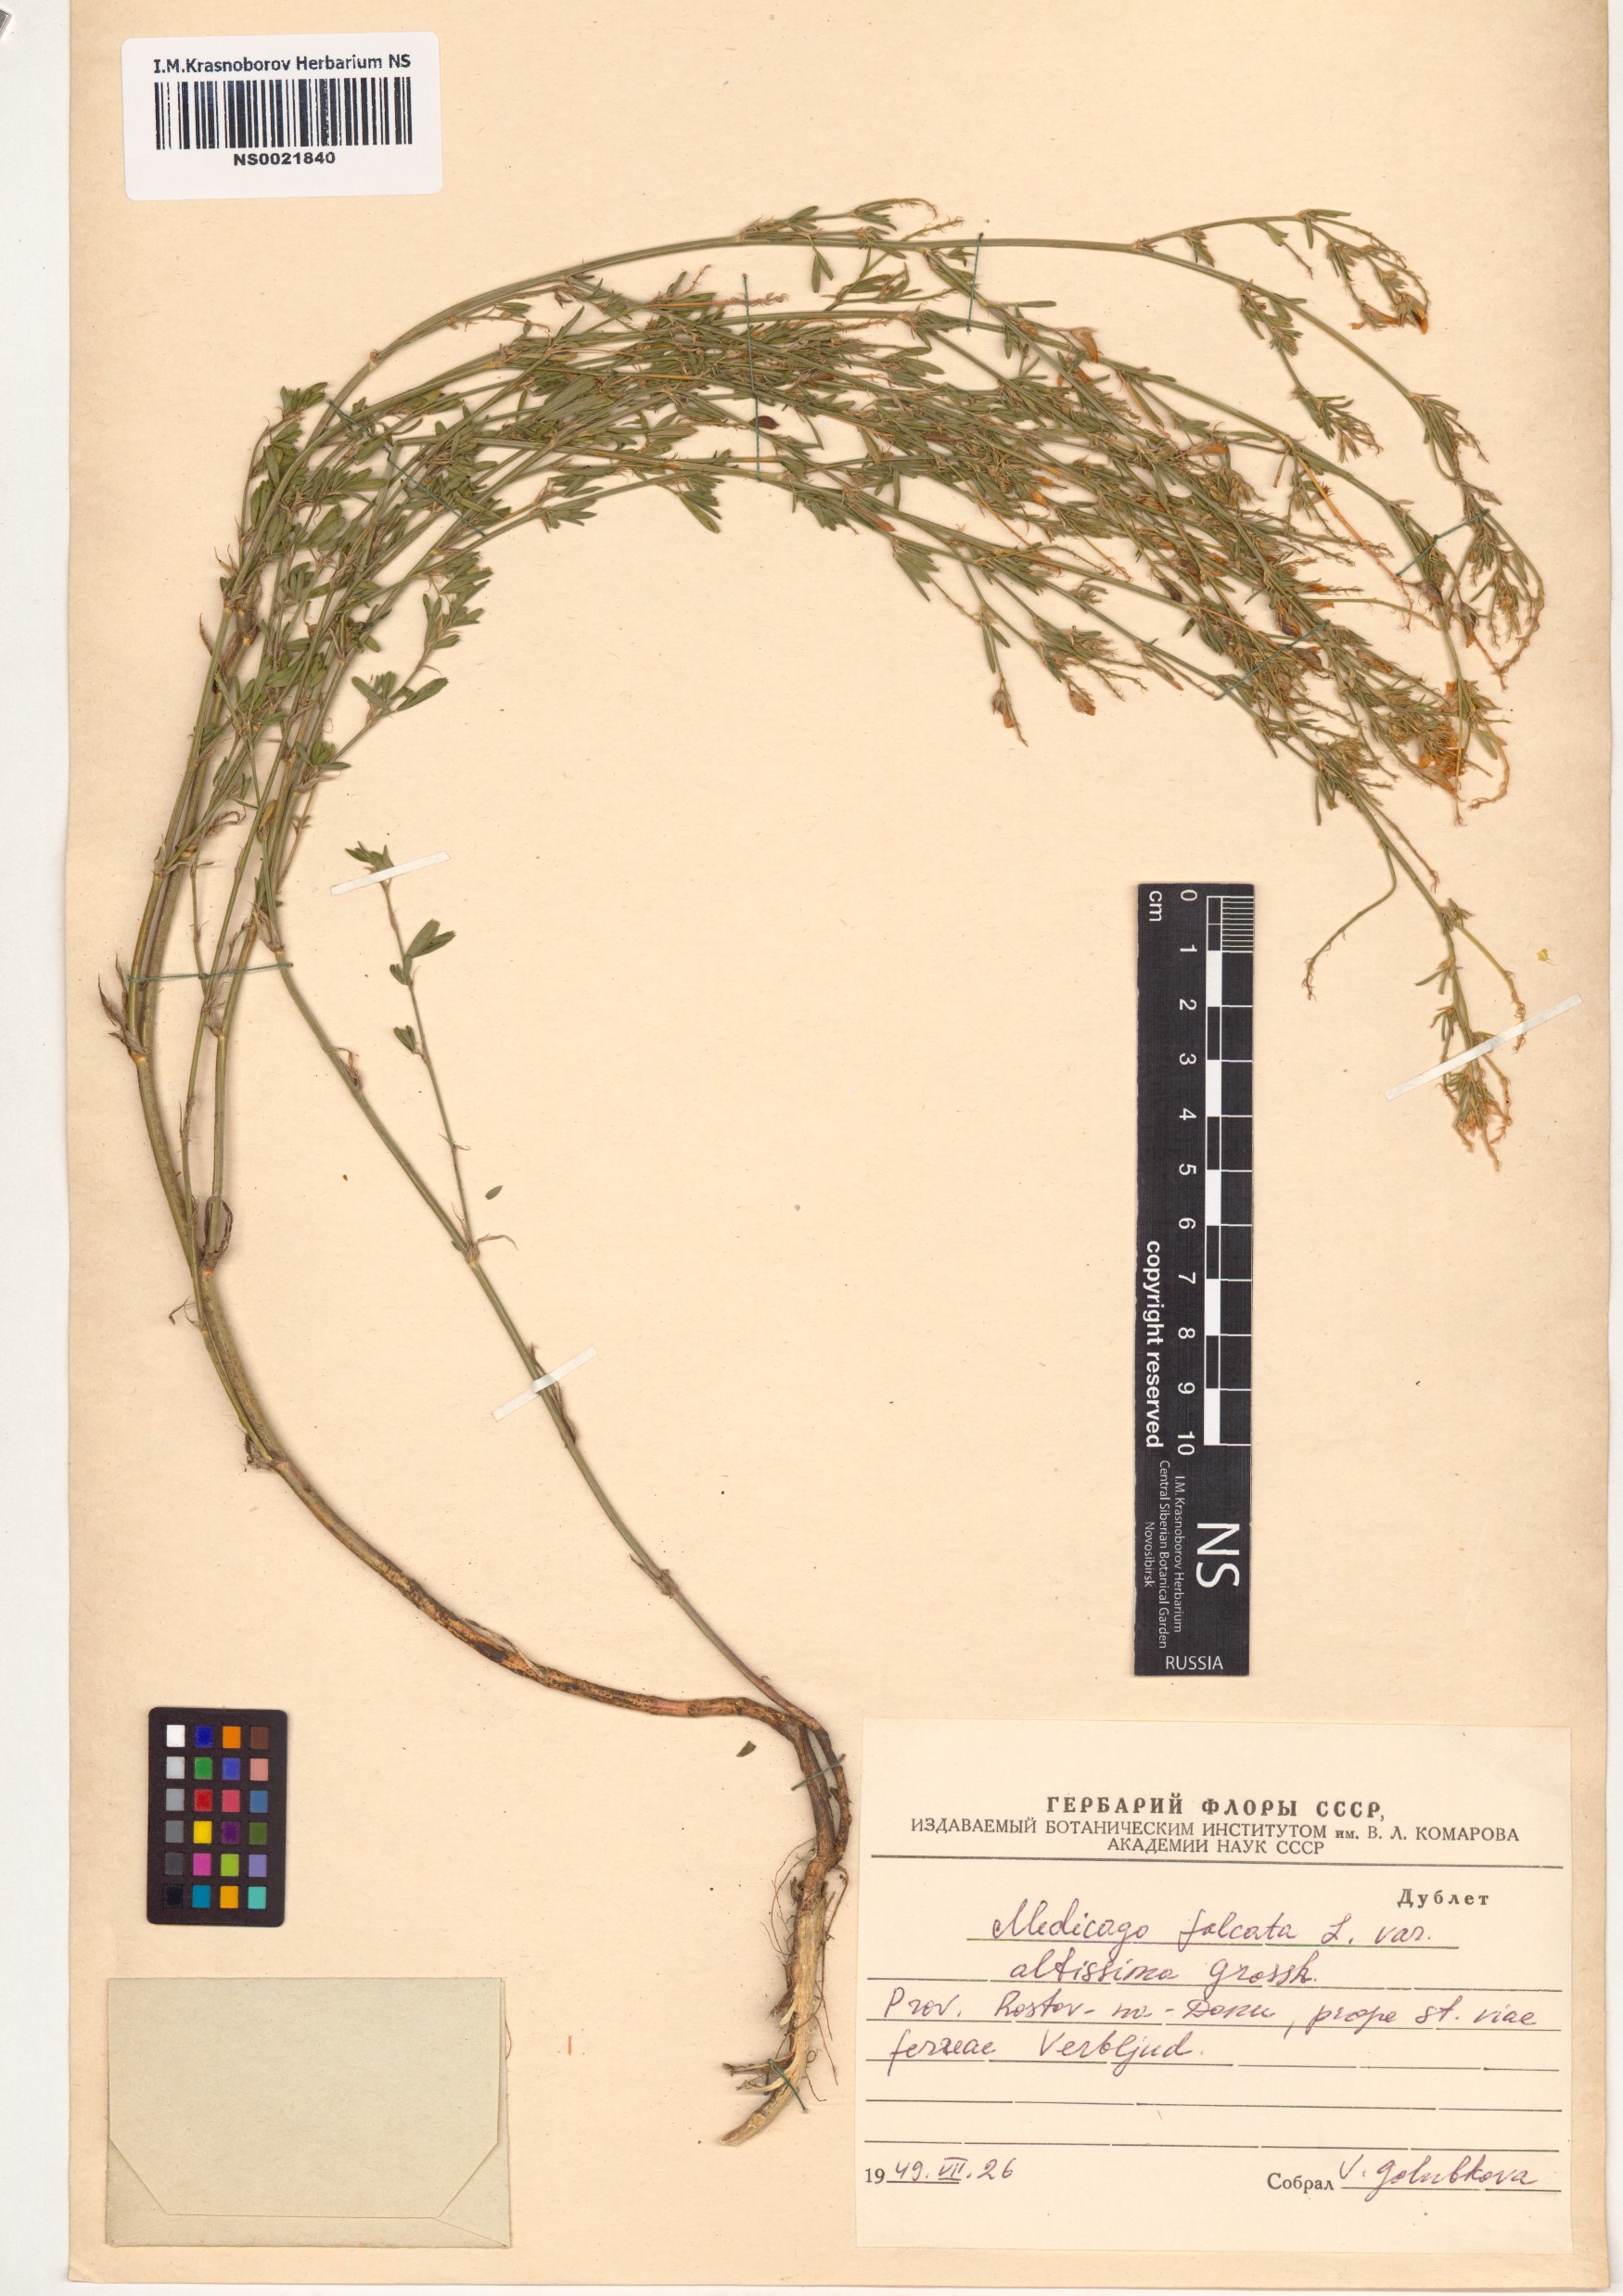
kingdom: Plantae
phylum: Tracheophyta
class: Magnoliopsida
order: Fabales
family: Fabaceae
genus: Medicago
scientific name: Medicago falcata
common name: Sickle medick
